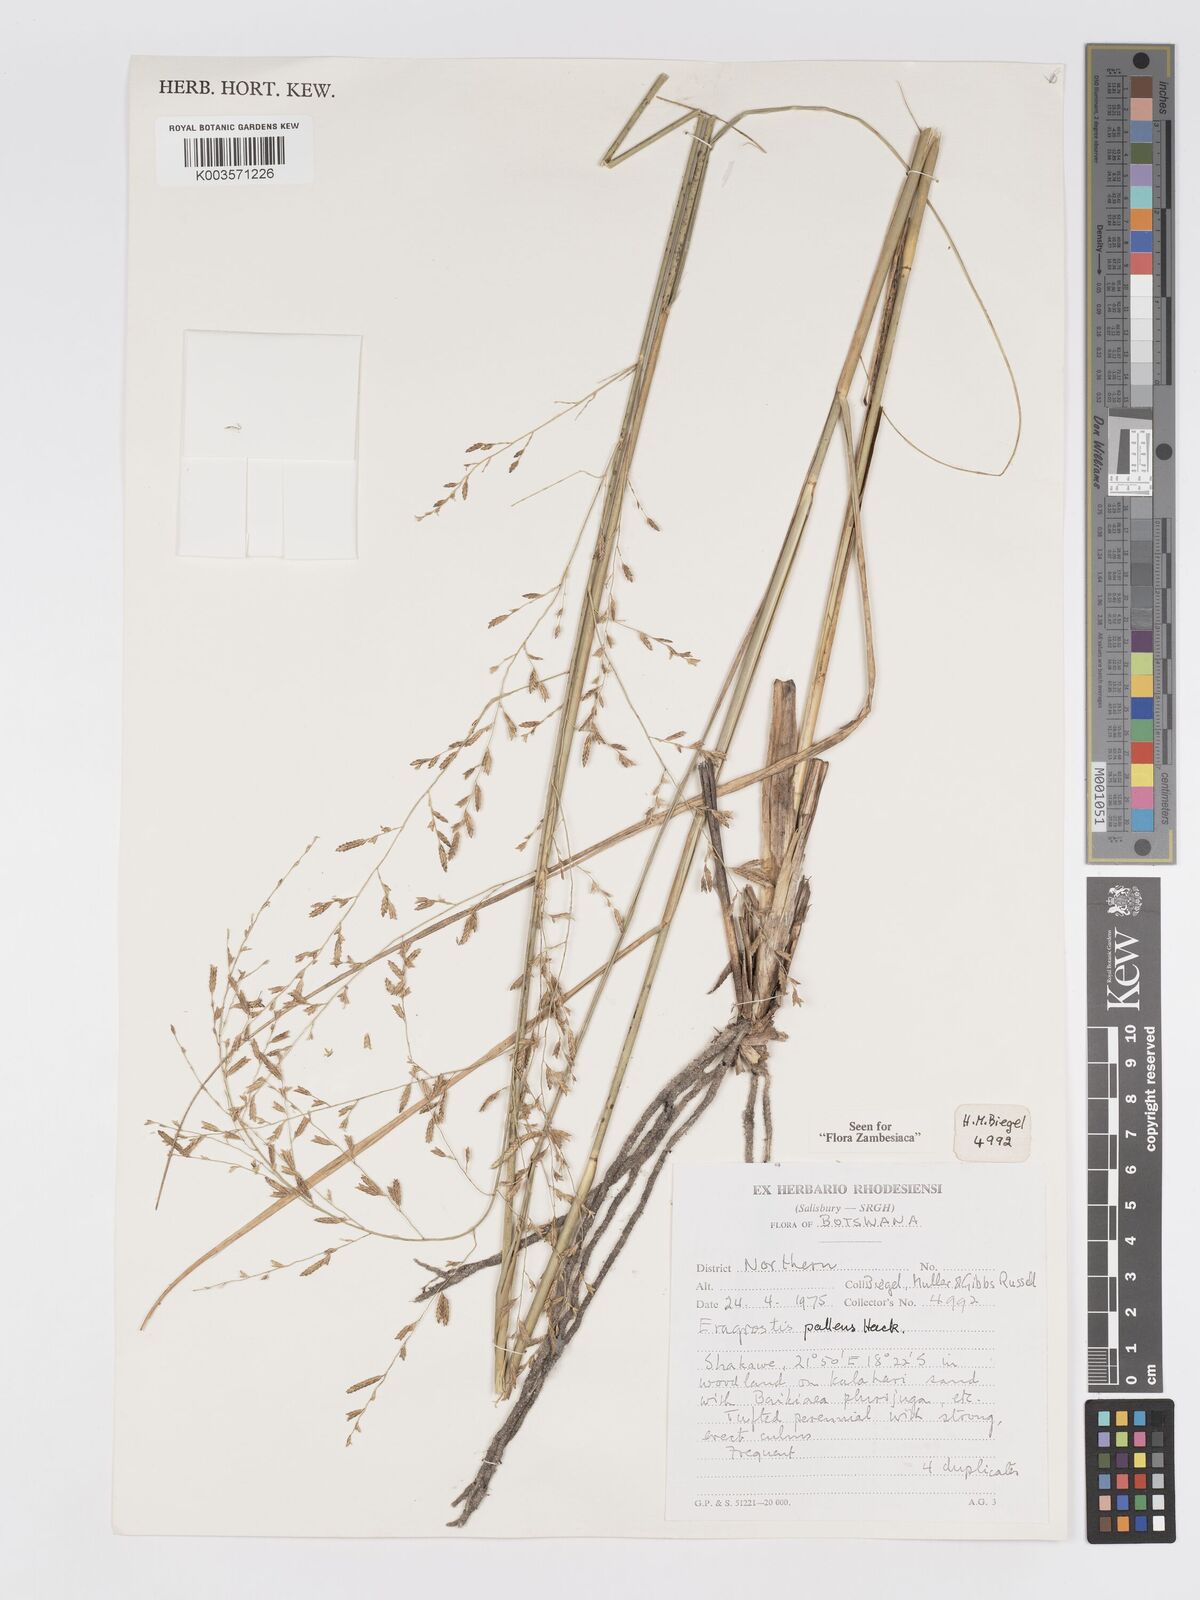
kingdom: Plantae
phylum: Tracheophyta
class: Liliopsida
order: Poales
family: Poaceae
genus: Eragrostis
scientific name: Eragrostis pallens
